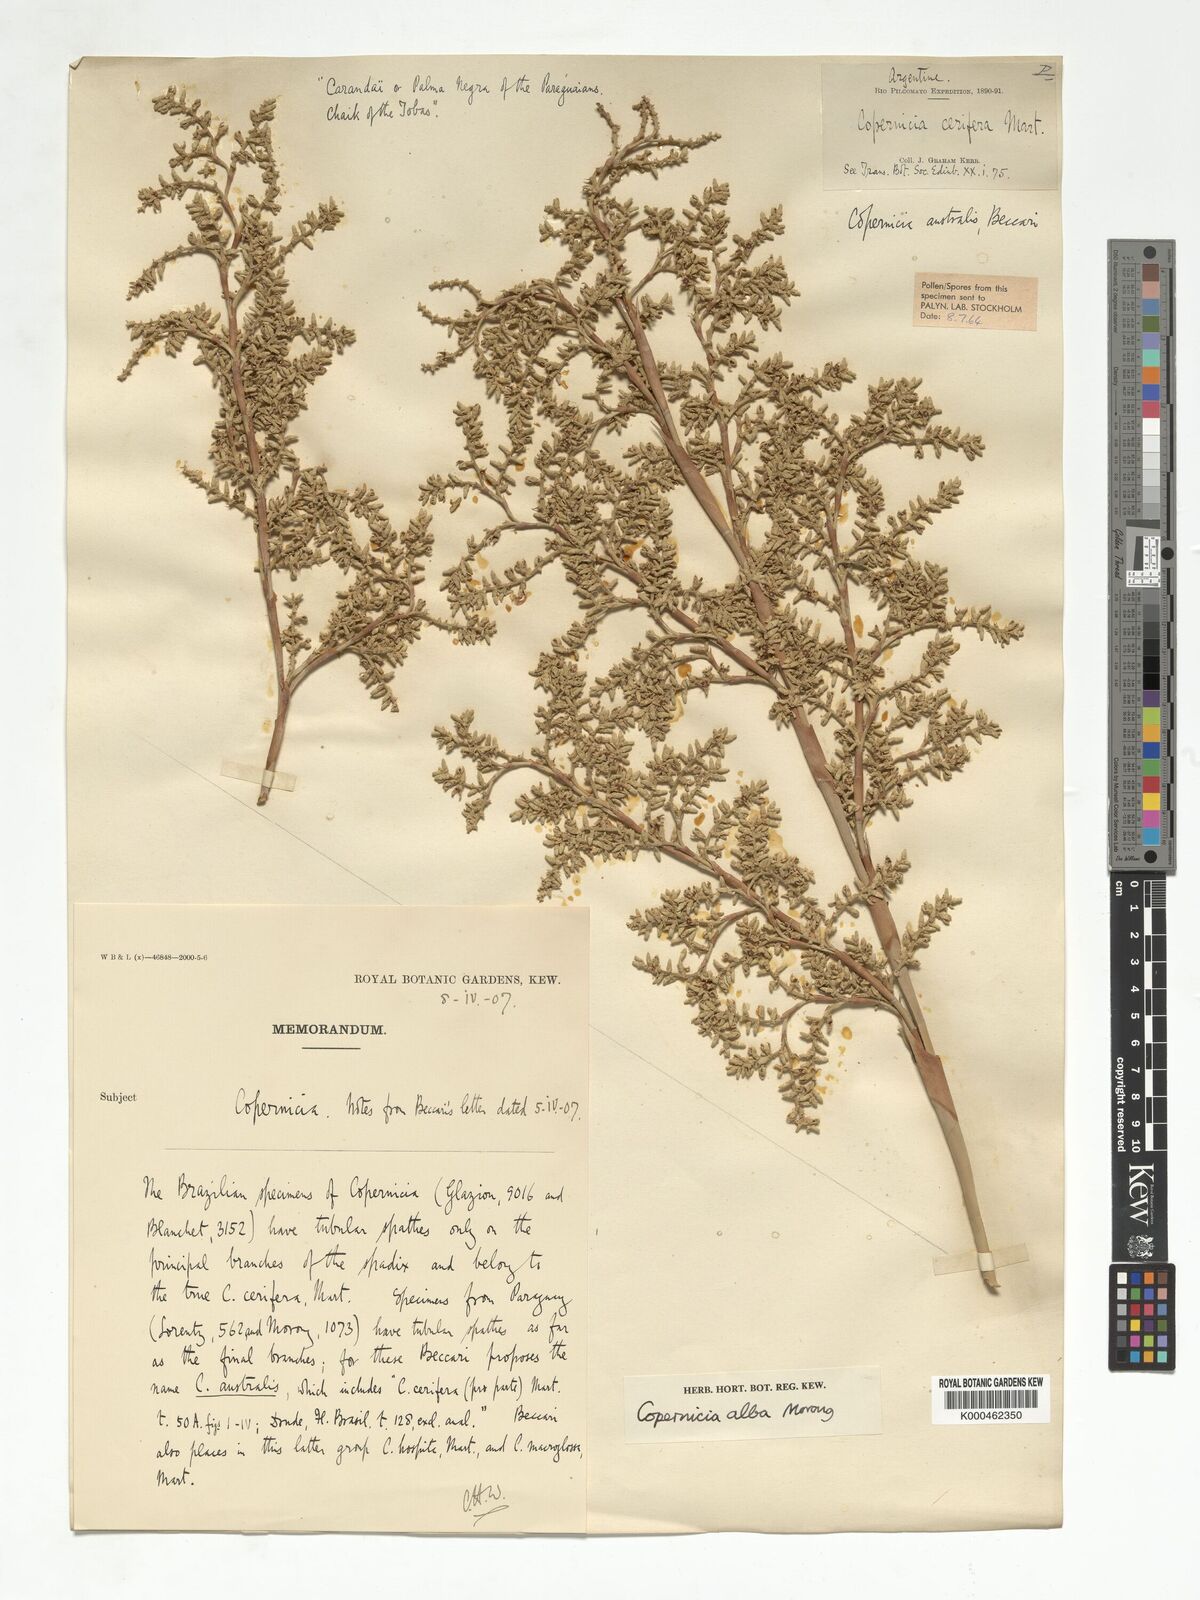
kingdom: Plantae
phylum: Tracheophyta
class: Liliopsida
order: Arecales
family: Arecaceae
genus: Copernicia
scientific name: Copernicia alba
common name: Caranday palm
